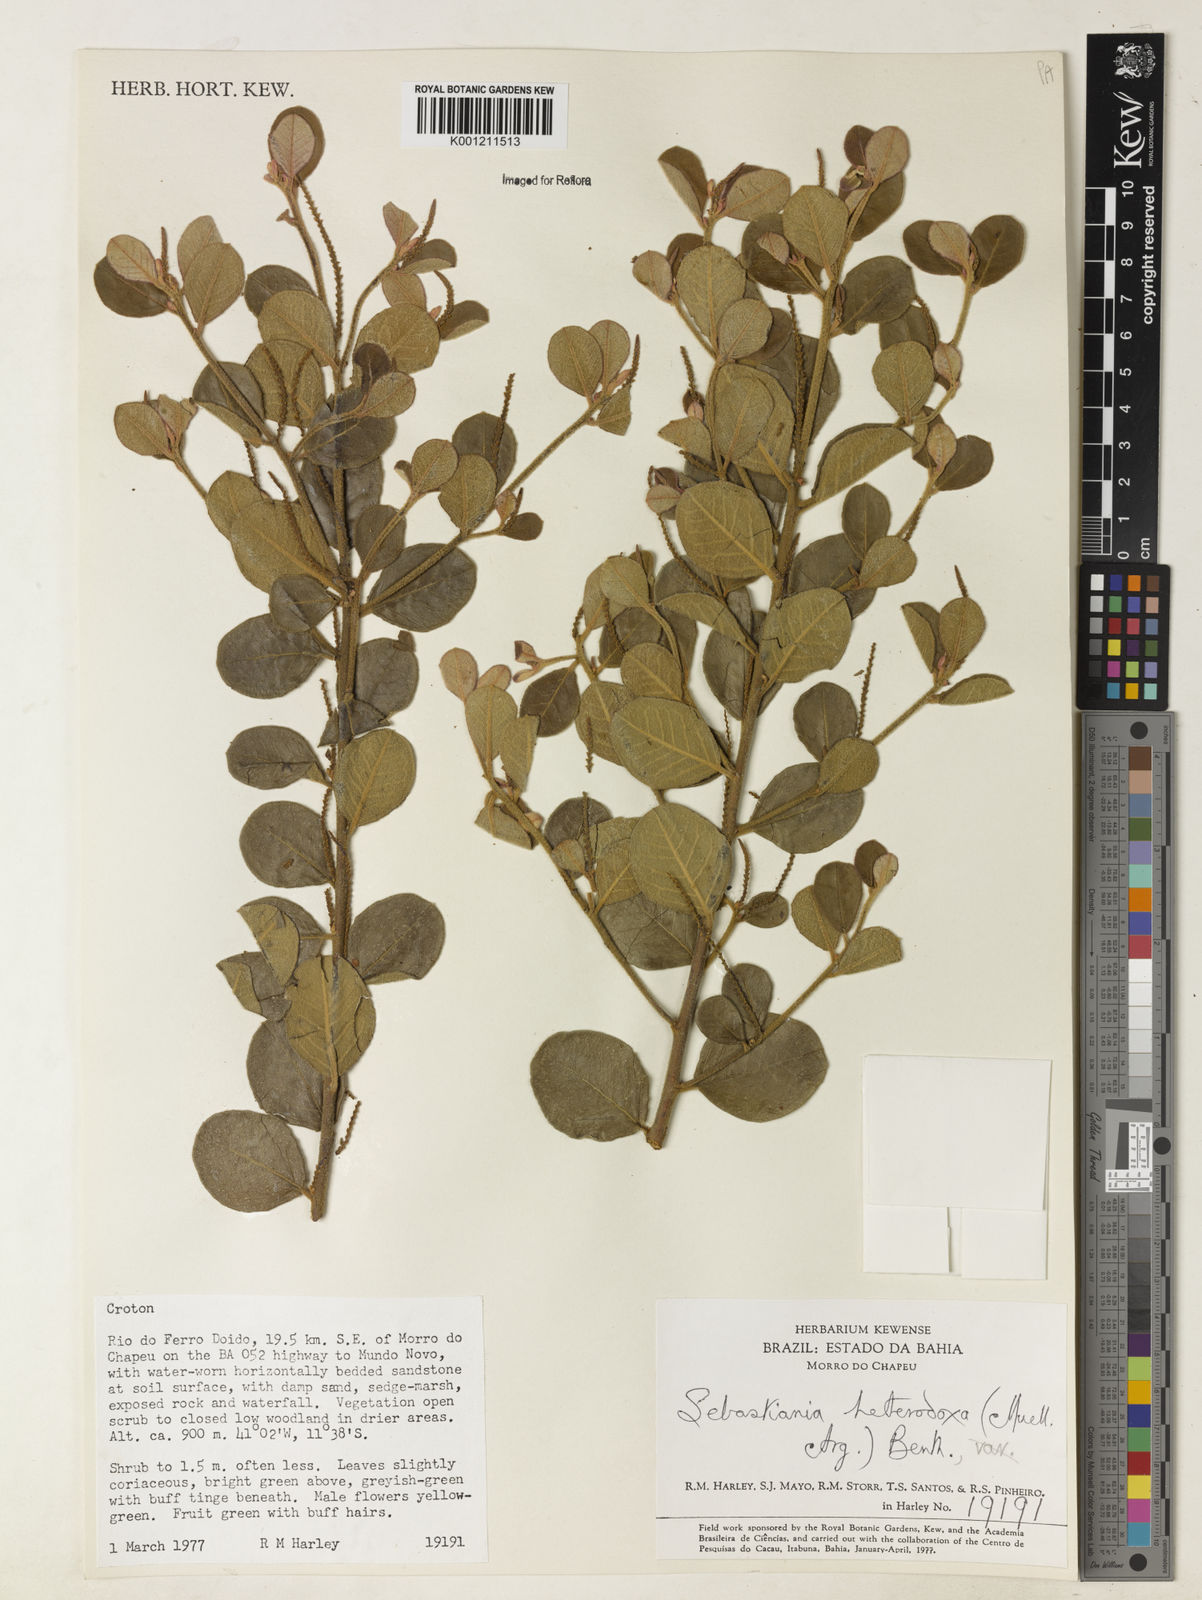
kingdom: Plantae
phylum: Tracheophyta
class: Magnoliopsida
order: Malpighiales
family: Euphorbiaceae
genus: Microstachys
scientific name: Microstachys
